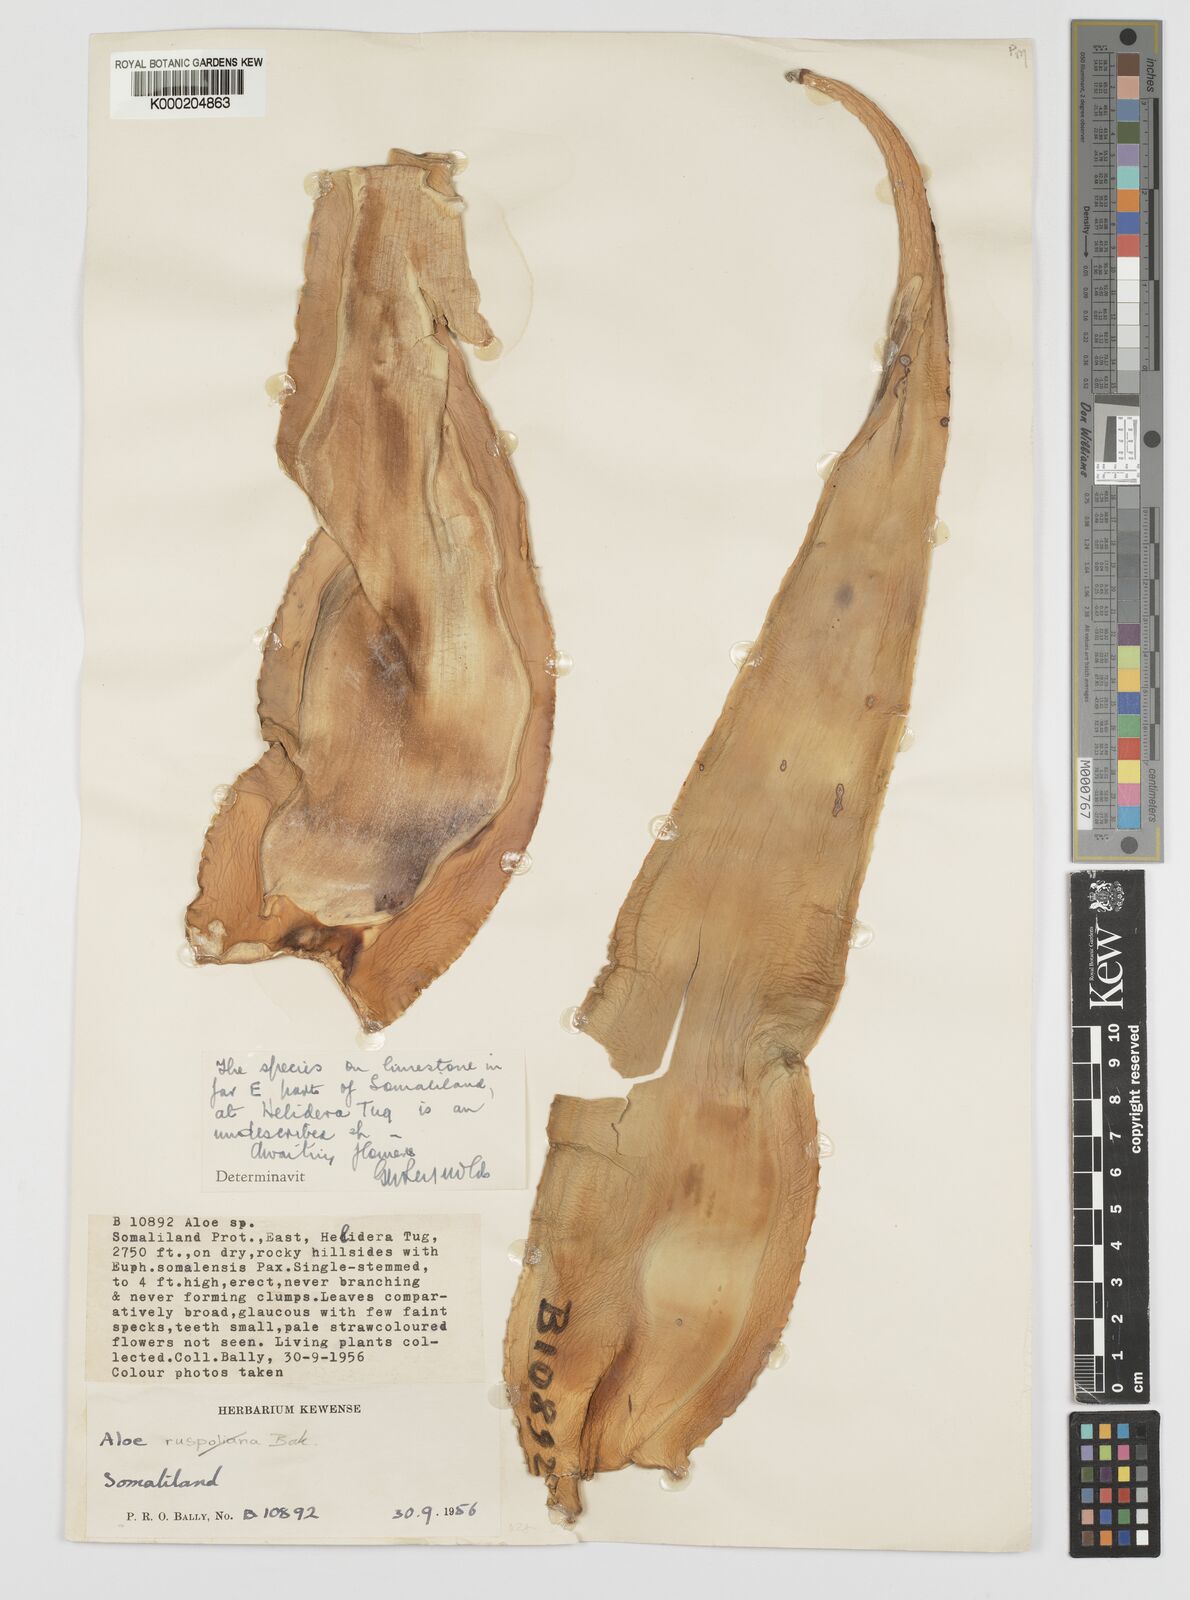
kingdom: Plantae
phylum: Tracheophyta
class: Liliopsida
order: Asparagales
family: Asphodelaceae
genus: Aloe
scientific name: Aloe heliderana
